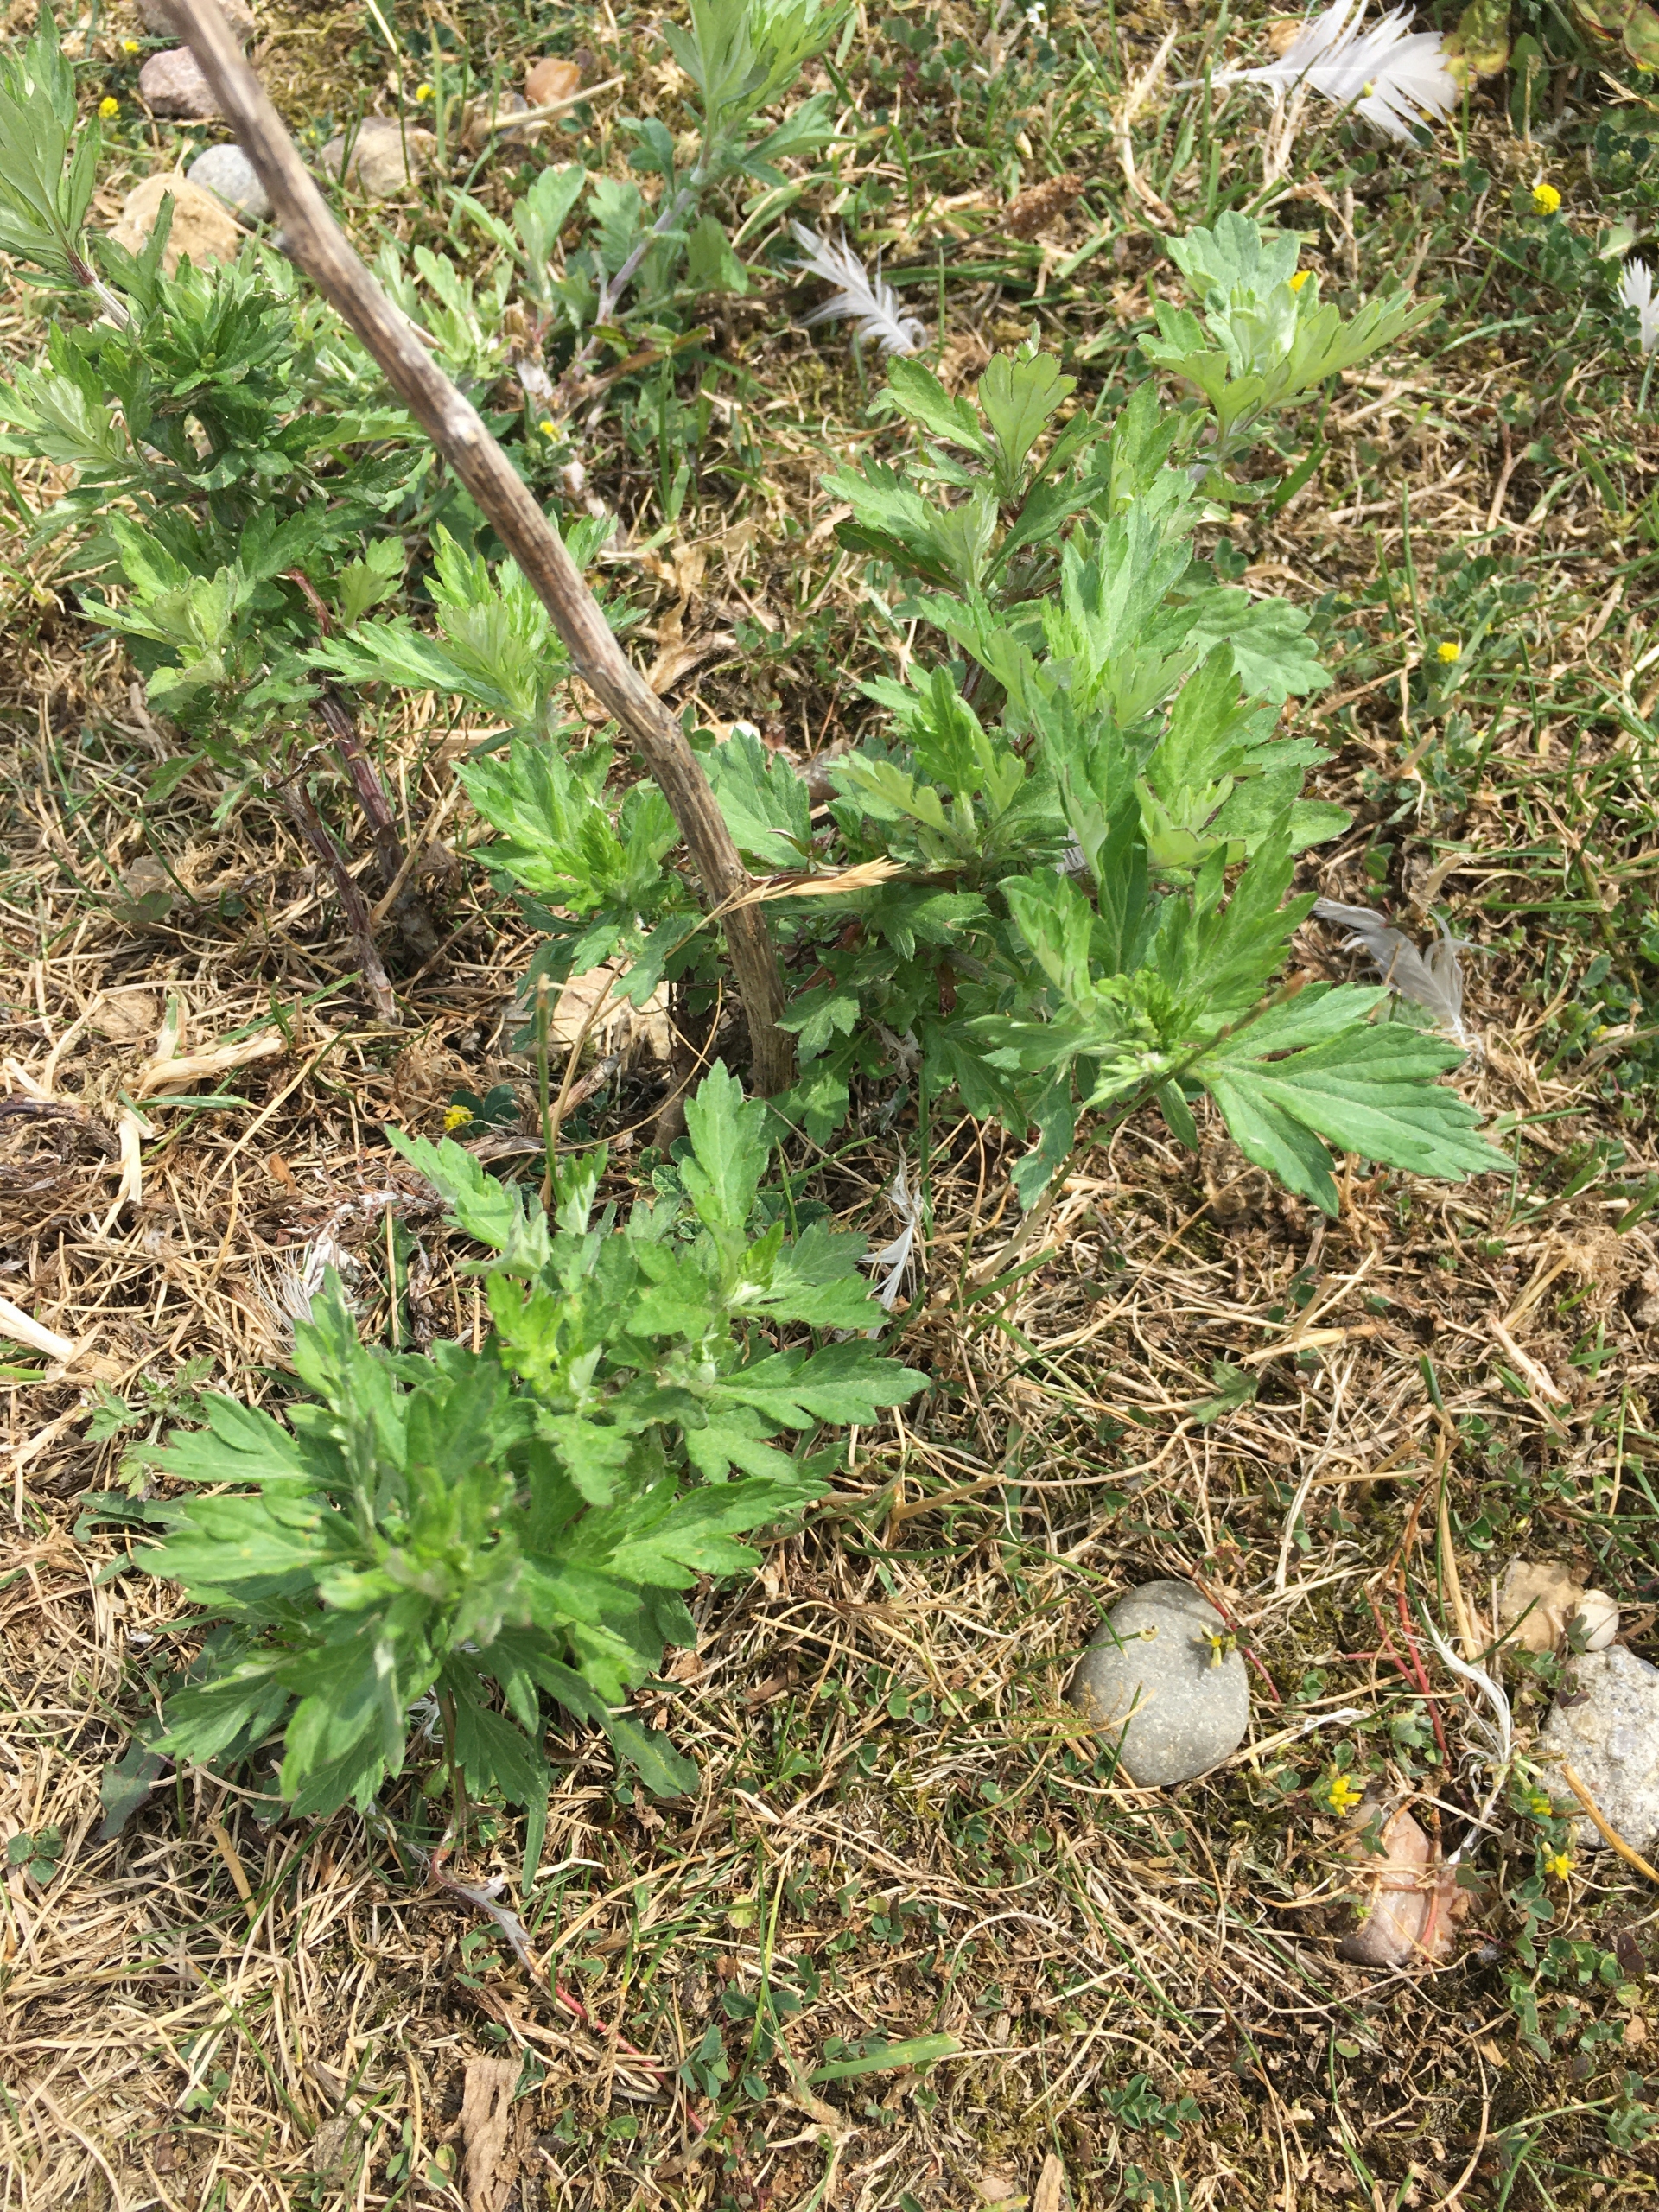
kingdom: Plantae
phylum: Tracheophyta
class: Magnoliopsida
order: Asterales
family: Asteraceae
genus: Artemisia
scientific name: Artemisia vulgaris
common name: Grå-bynke
